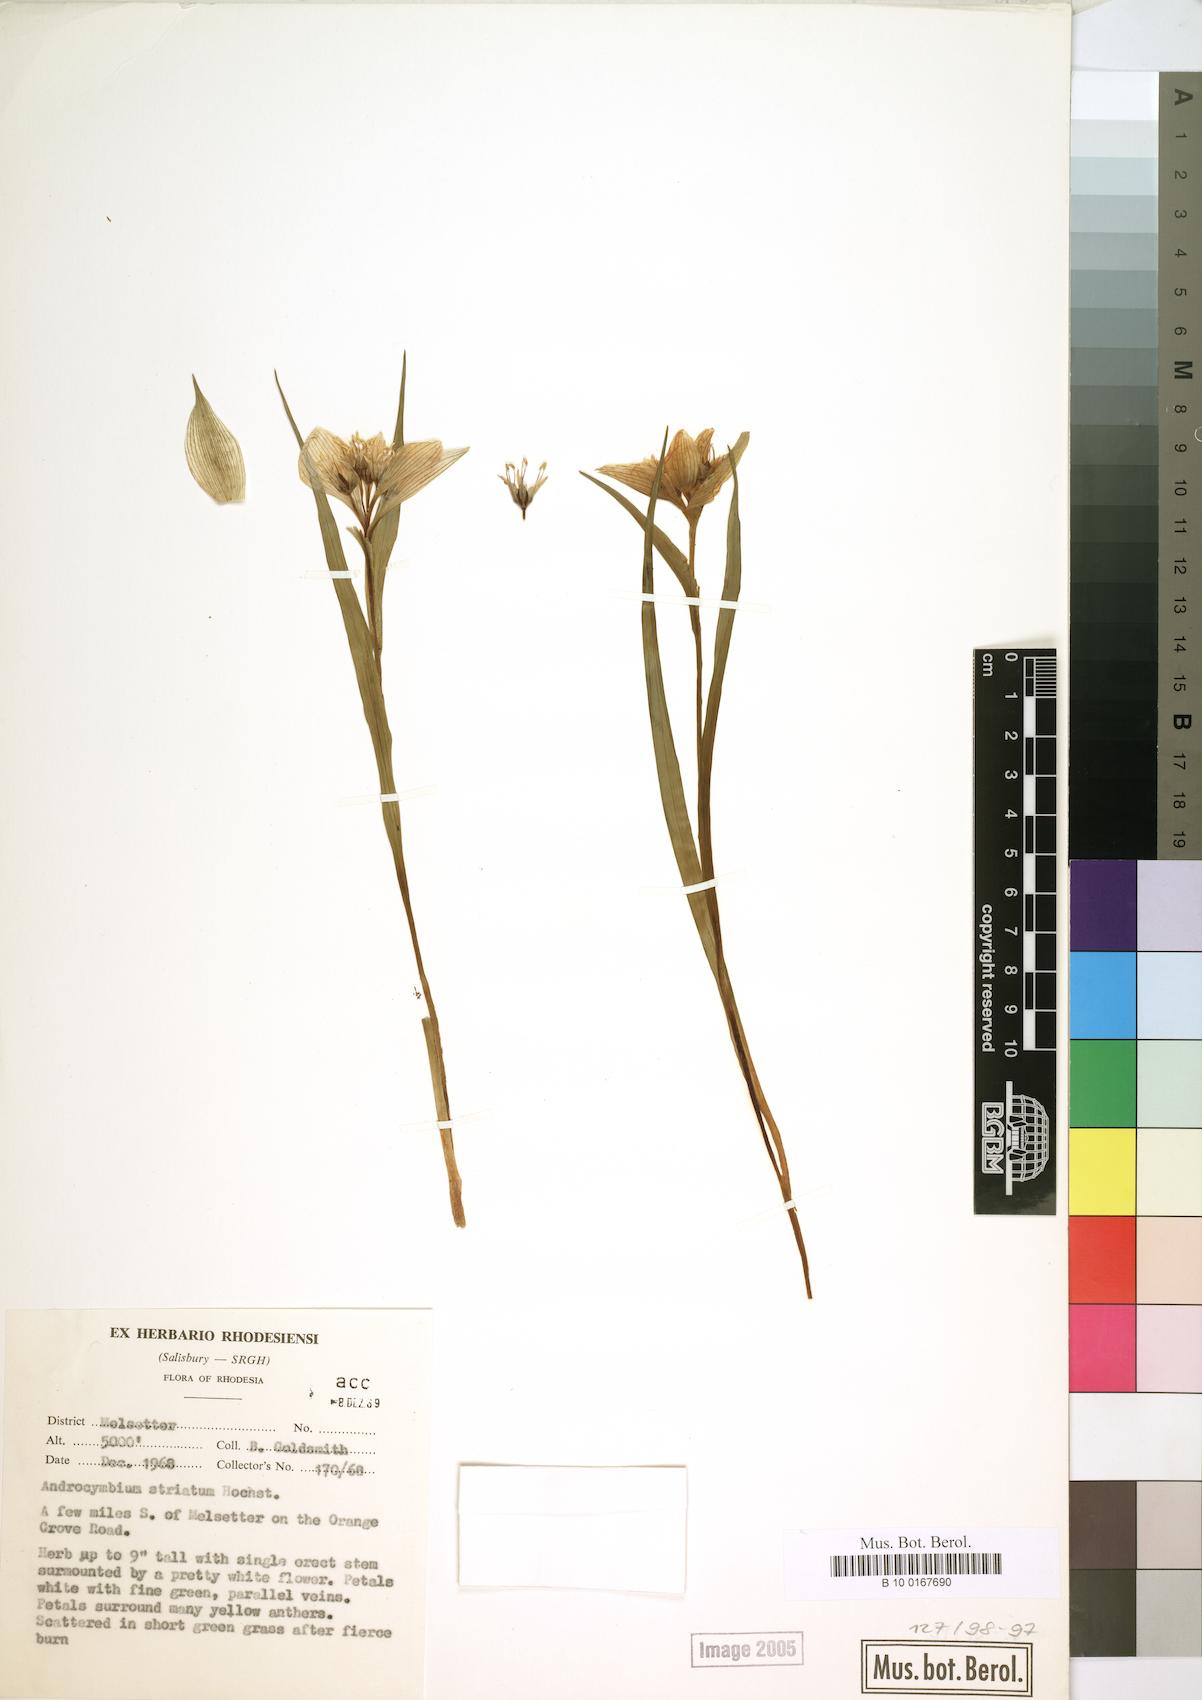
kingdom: Plantae
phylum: Tracheophyta
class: Liliopsida
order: Liliales
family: Colchicaceae
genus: Colchicum
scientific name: Colchicum striatum
